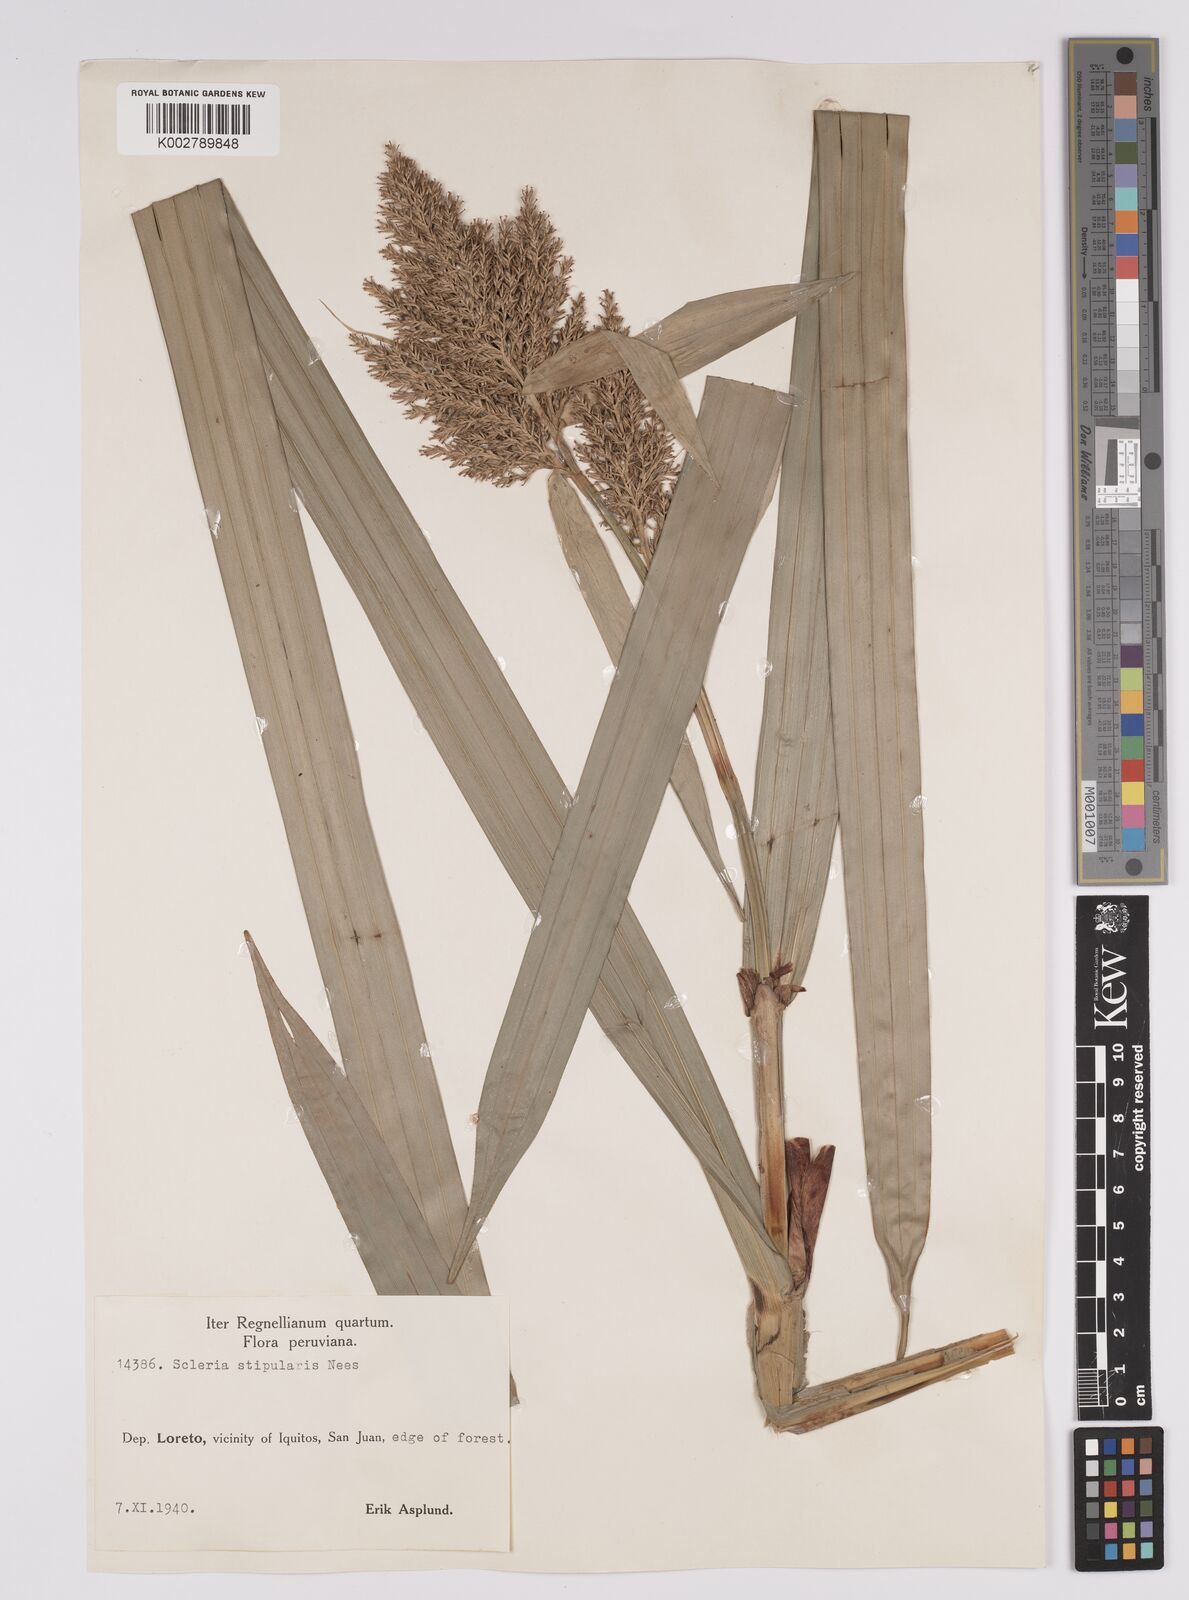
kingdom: Plantae
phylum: Tracheophyta
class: Liliopsida
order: Poales
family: Cyperaceae
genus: Scleria
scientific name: Scleria stipularis
